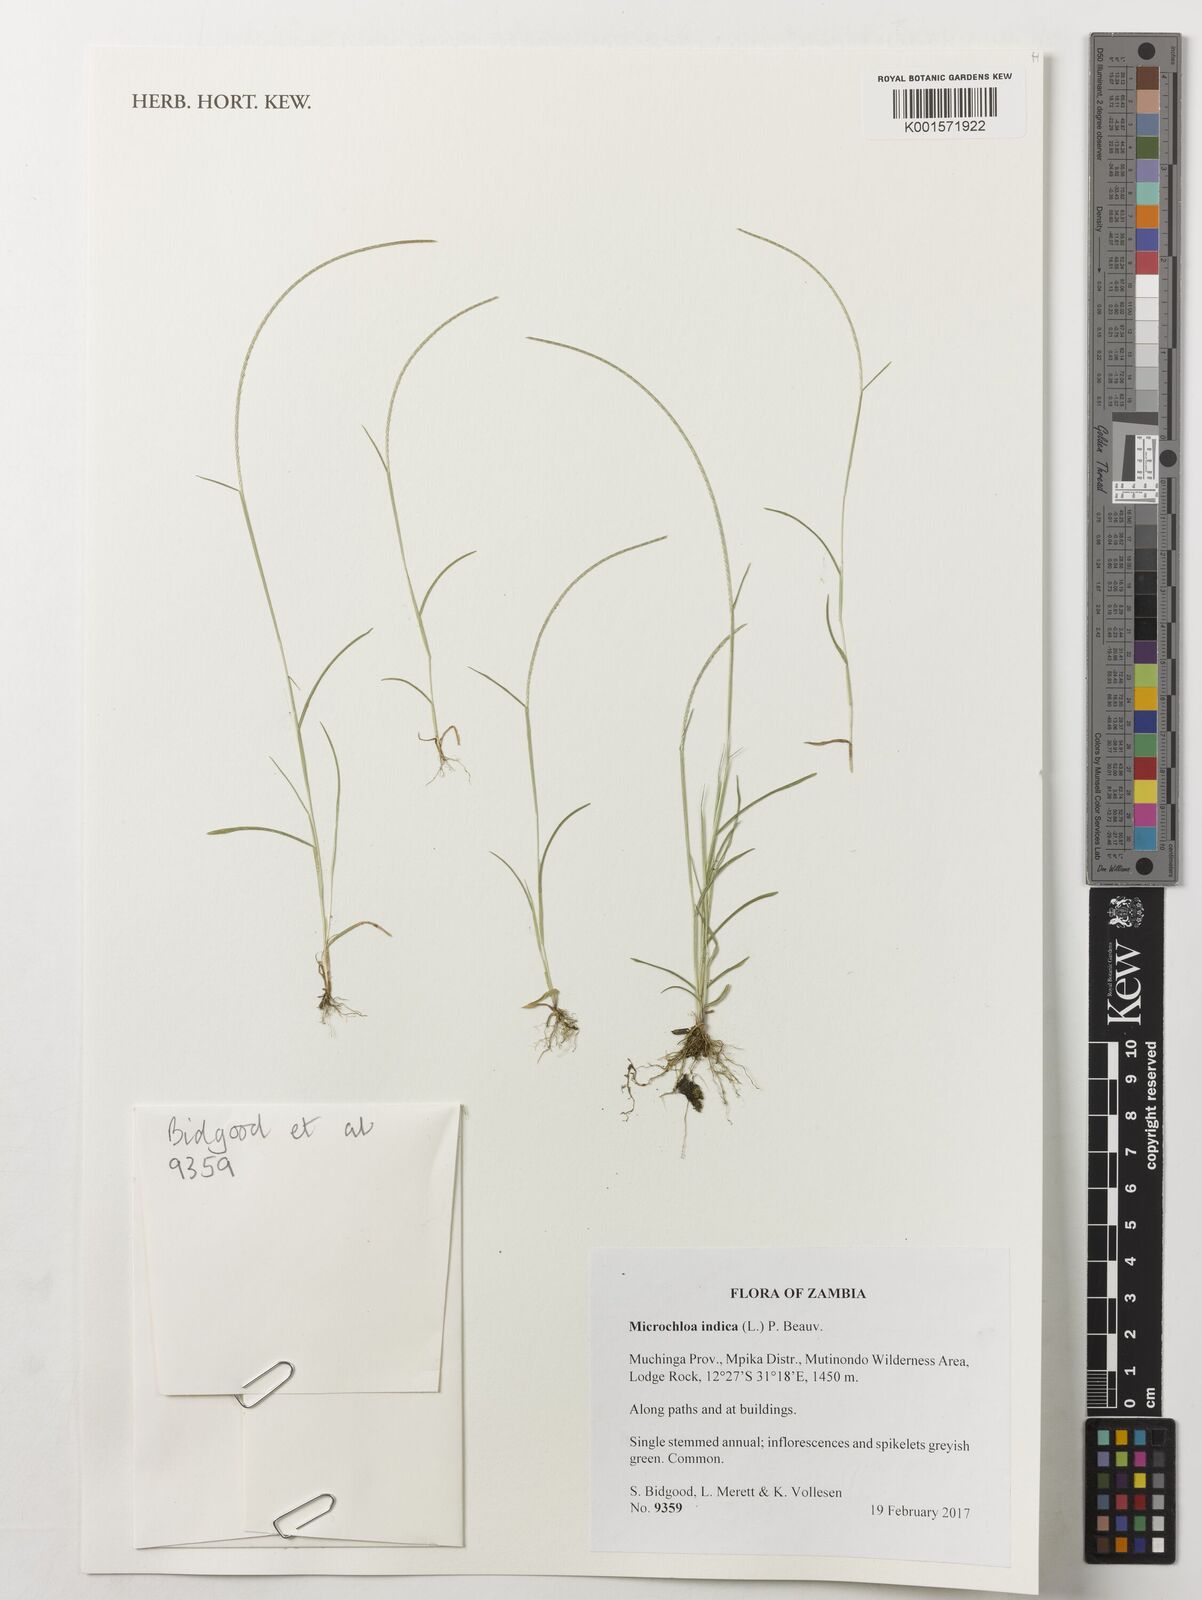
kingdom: Plantae
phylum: Tracheophyta
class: Liliopsida
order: Poales
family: Poaceae
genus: Microchloa
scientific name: Microchloa indica
